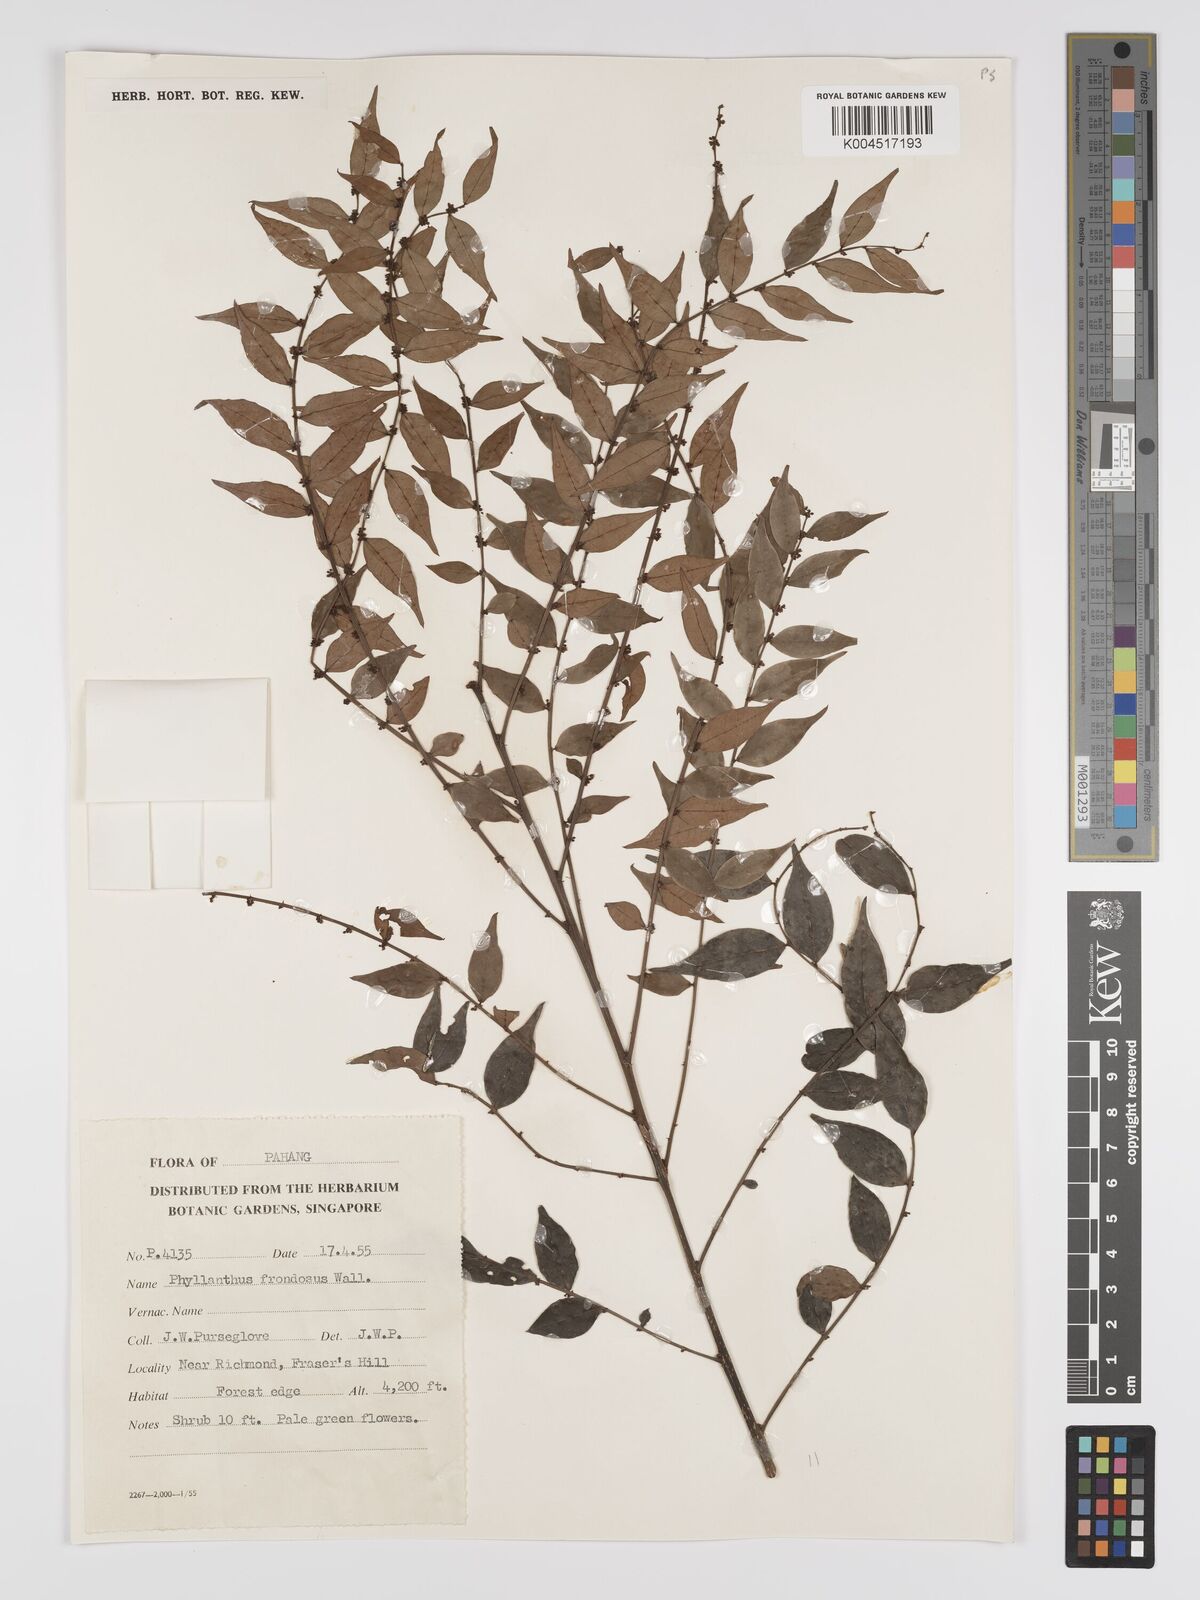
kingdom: Plantae
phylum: Tracheophyta
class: Magnoliopsida
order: Malpighiales
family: Phyllanthaceae
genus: Phyllanthus
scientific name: Phyllanthus
